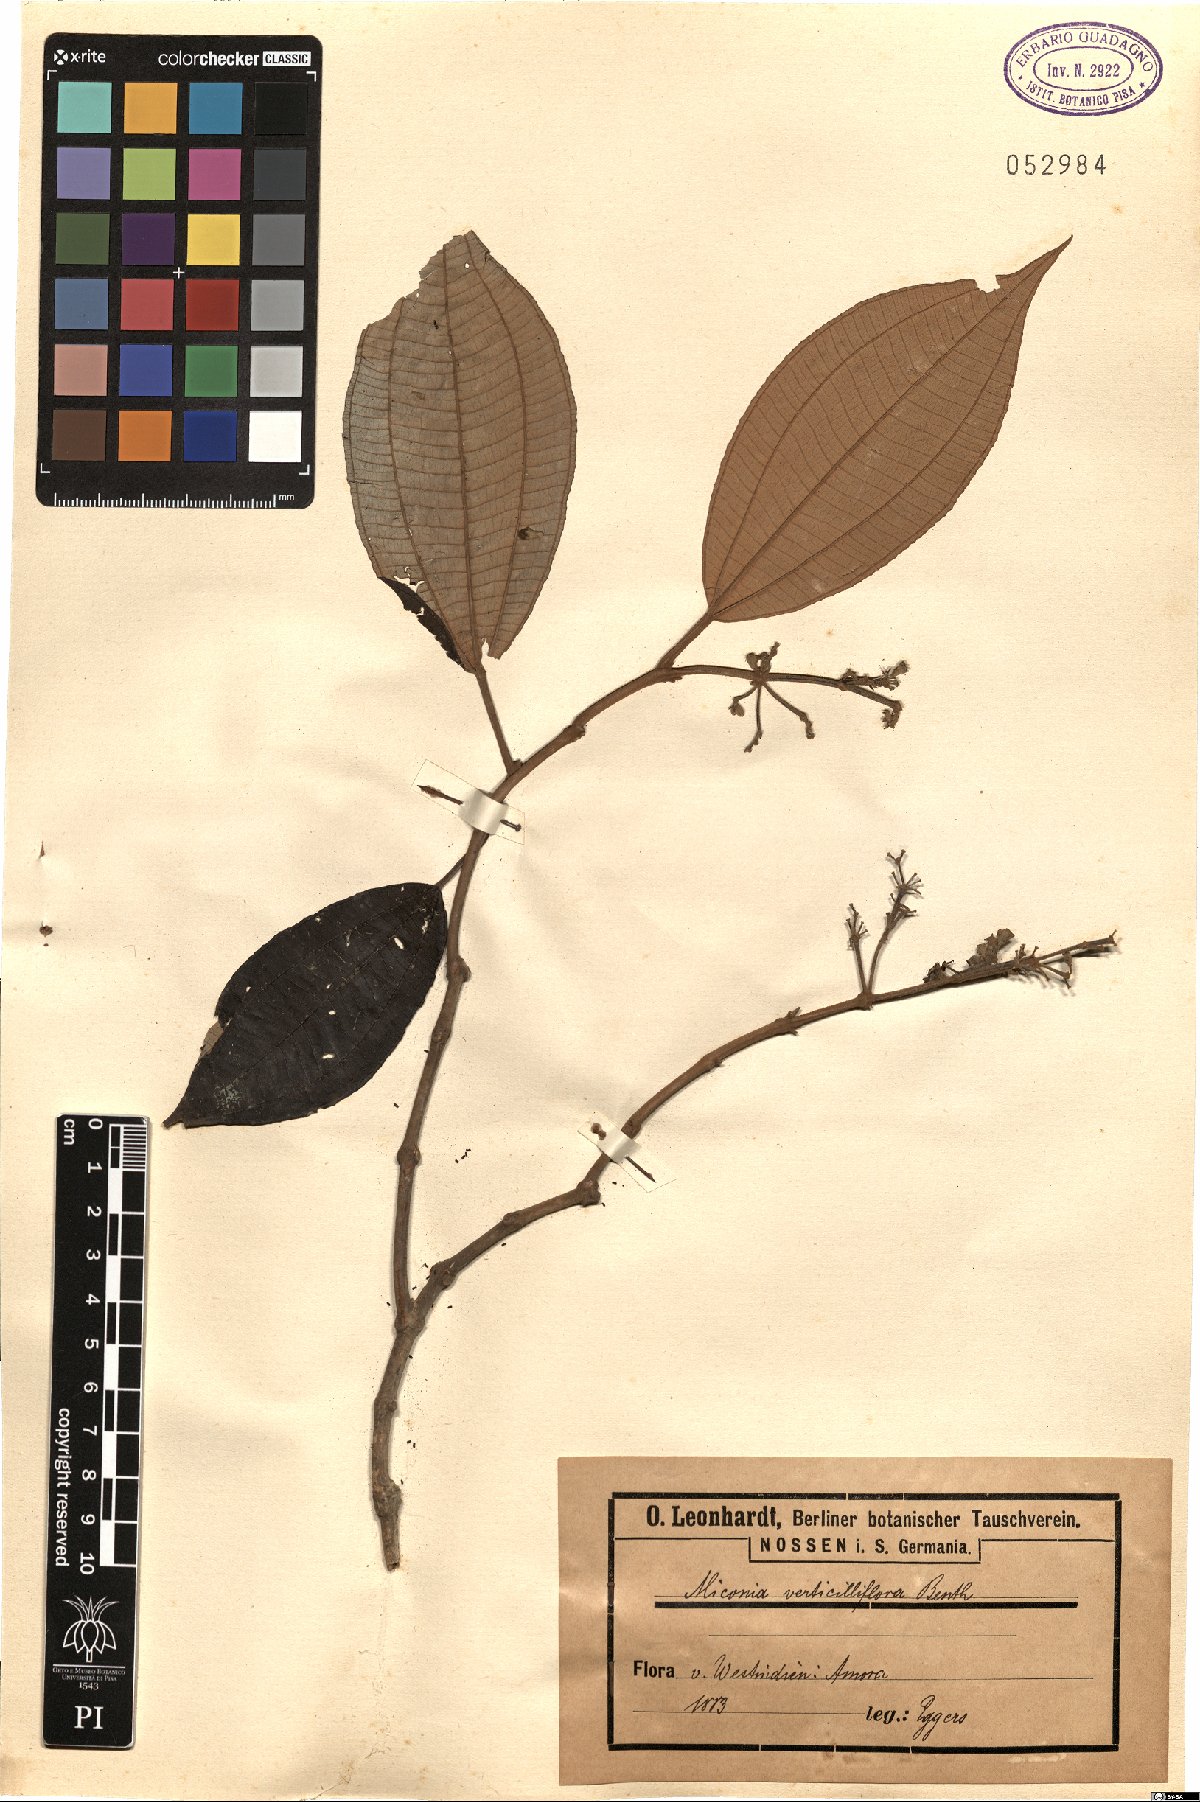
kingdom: Plantae
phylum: Tracheophyta
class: Magnoliopsida
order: Myrtales
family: Melastomataceae
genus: Miconia
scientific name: Miconia pubipetala
